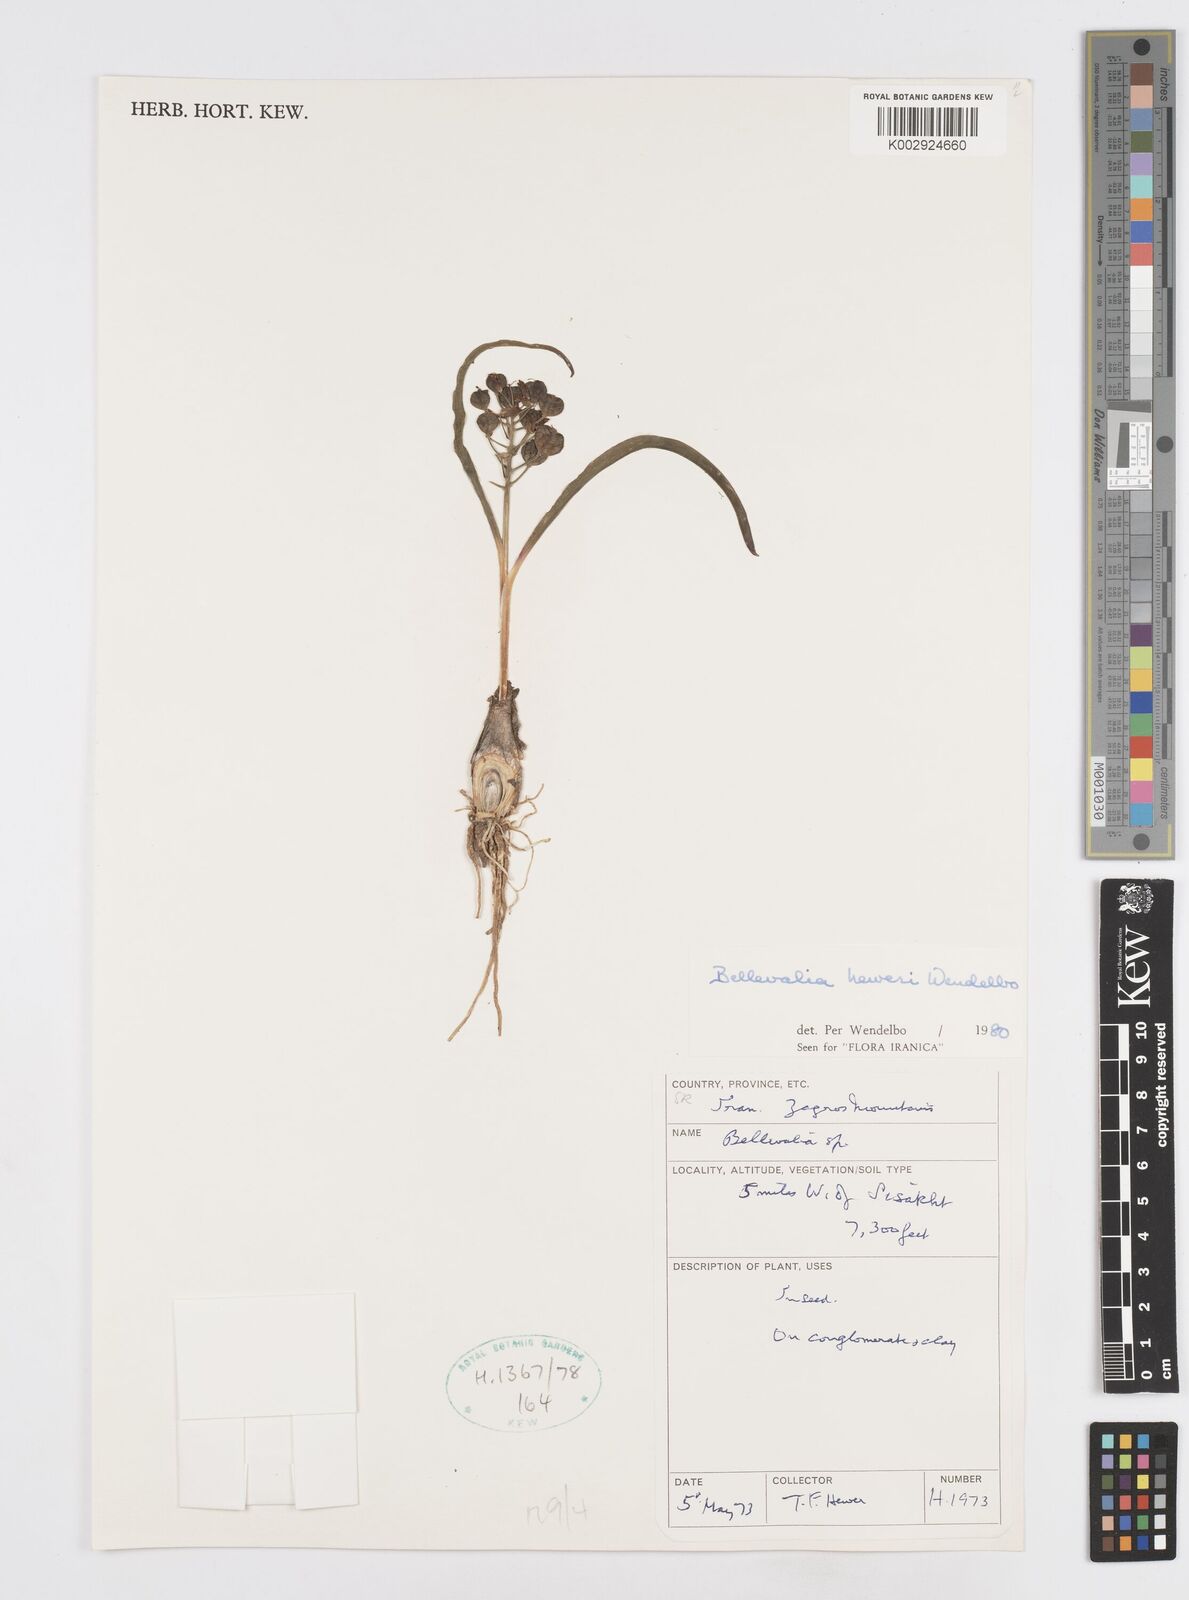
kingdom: Plantae
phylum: Tracheophyta
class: Liliopsida
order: Asparagales
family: Asparagaceae
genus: Bellevalia
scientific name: Bellevalia heweri
